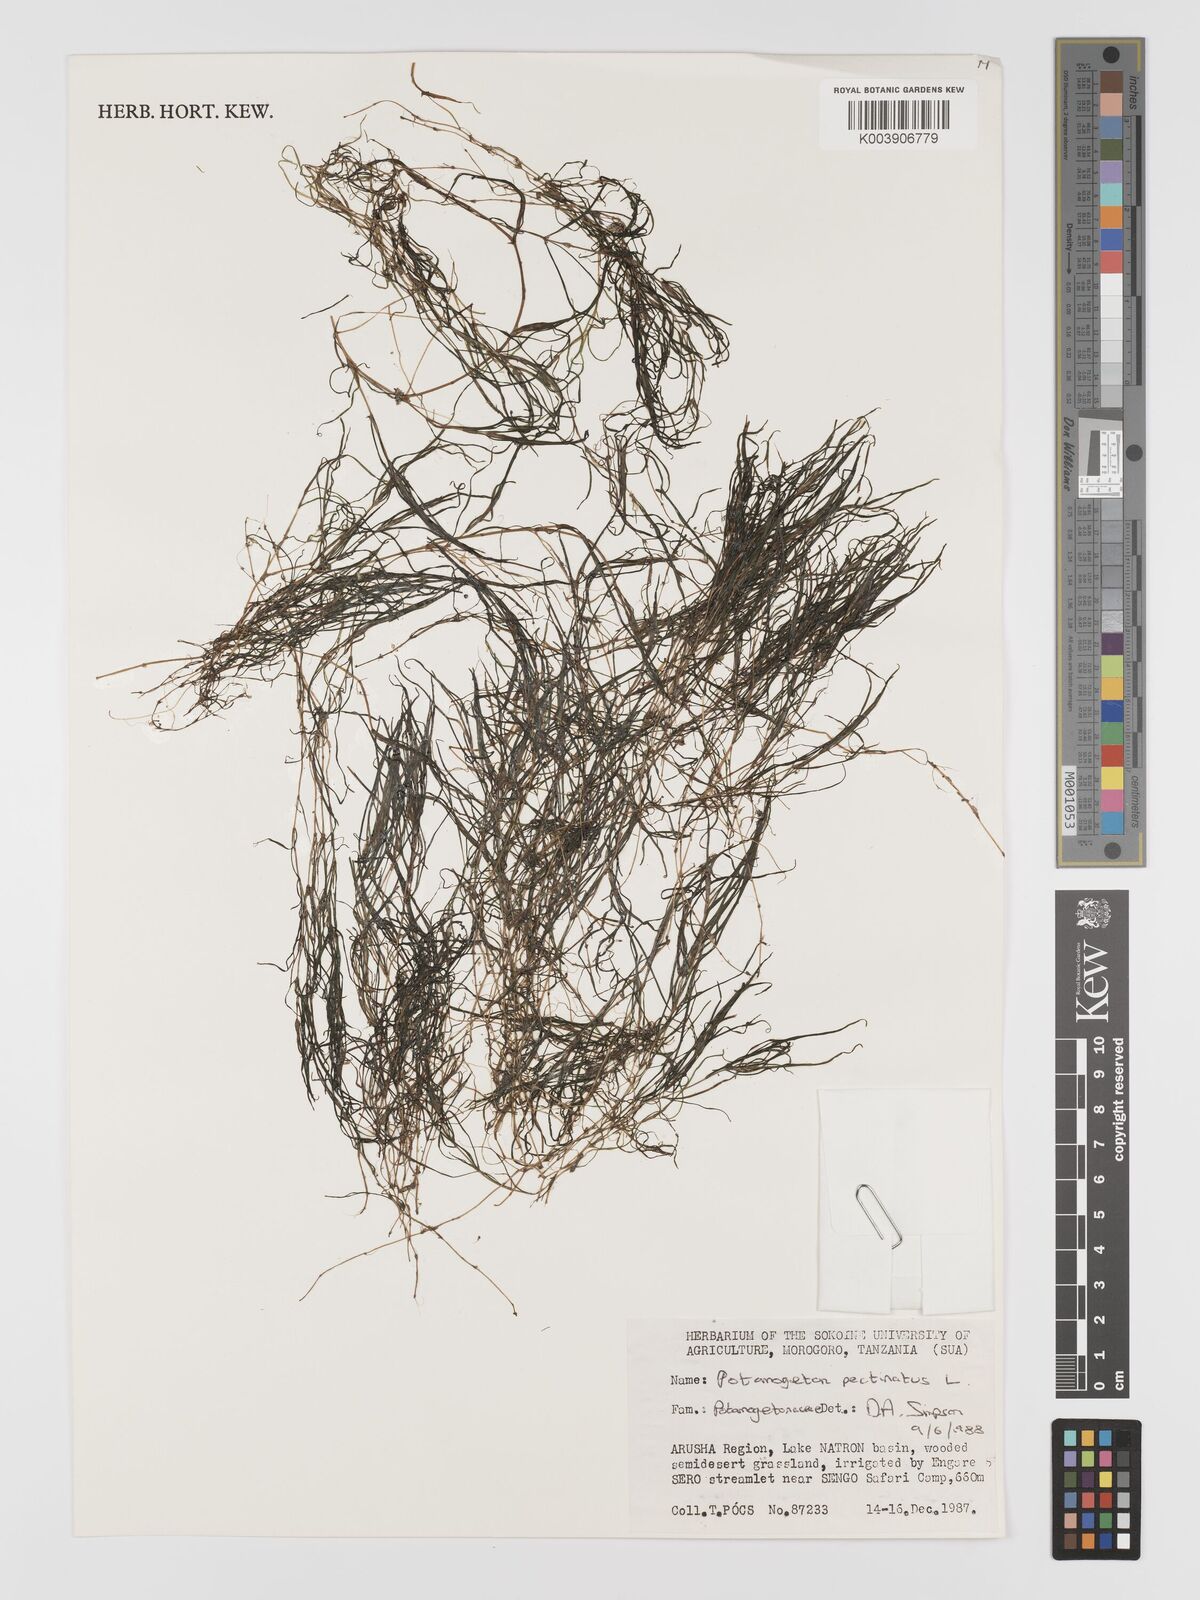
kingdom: Plantae
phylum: Tracheophyta
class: Liliopsida
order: Alismatales
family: Potamogetonaceae
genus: Stuckenia
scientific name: Stuckenia pectinata
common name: Sago pondweed
